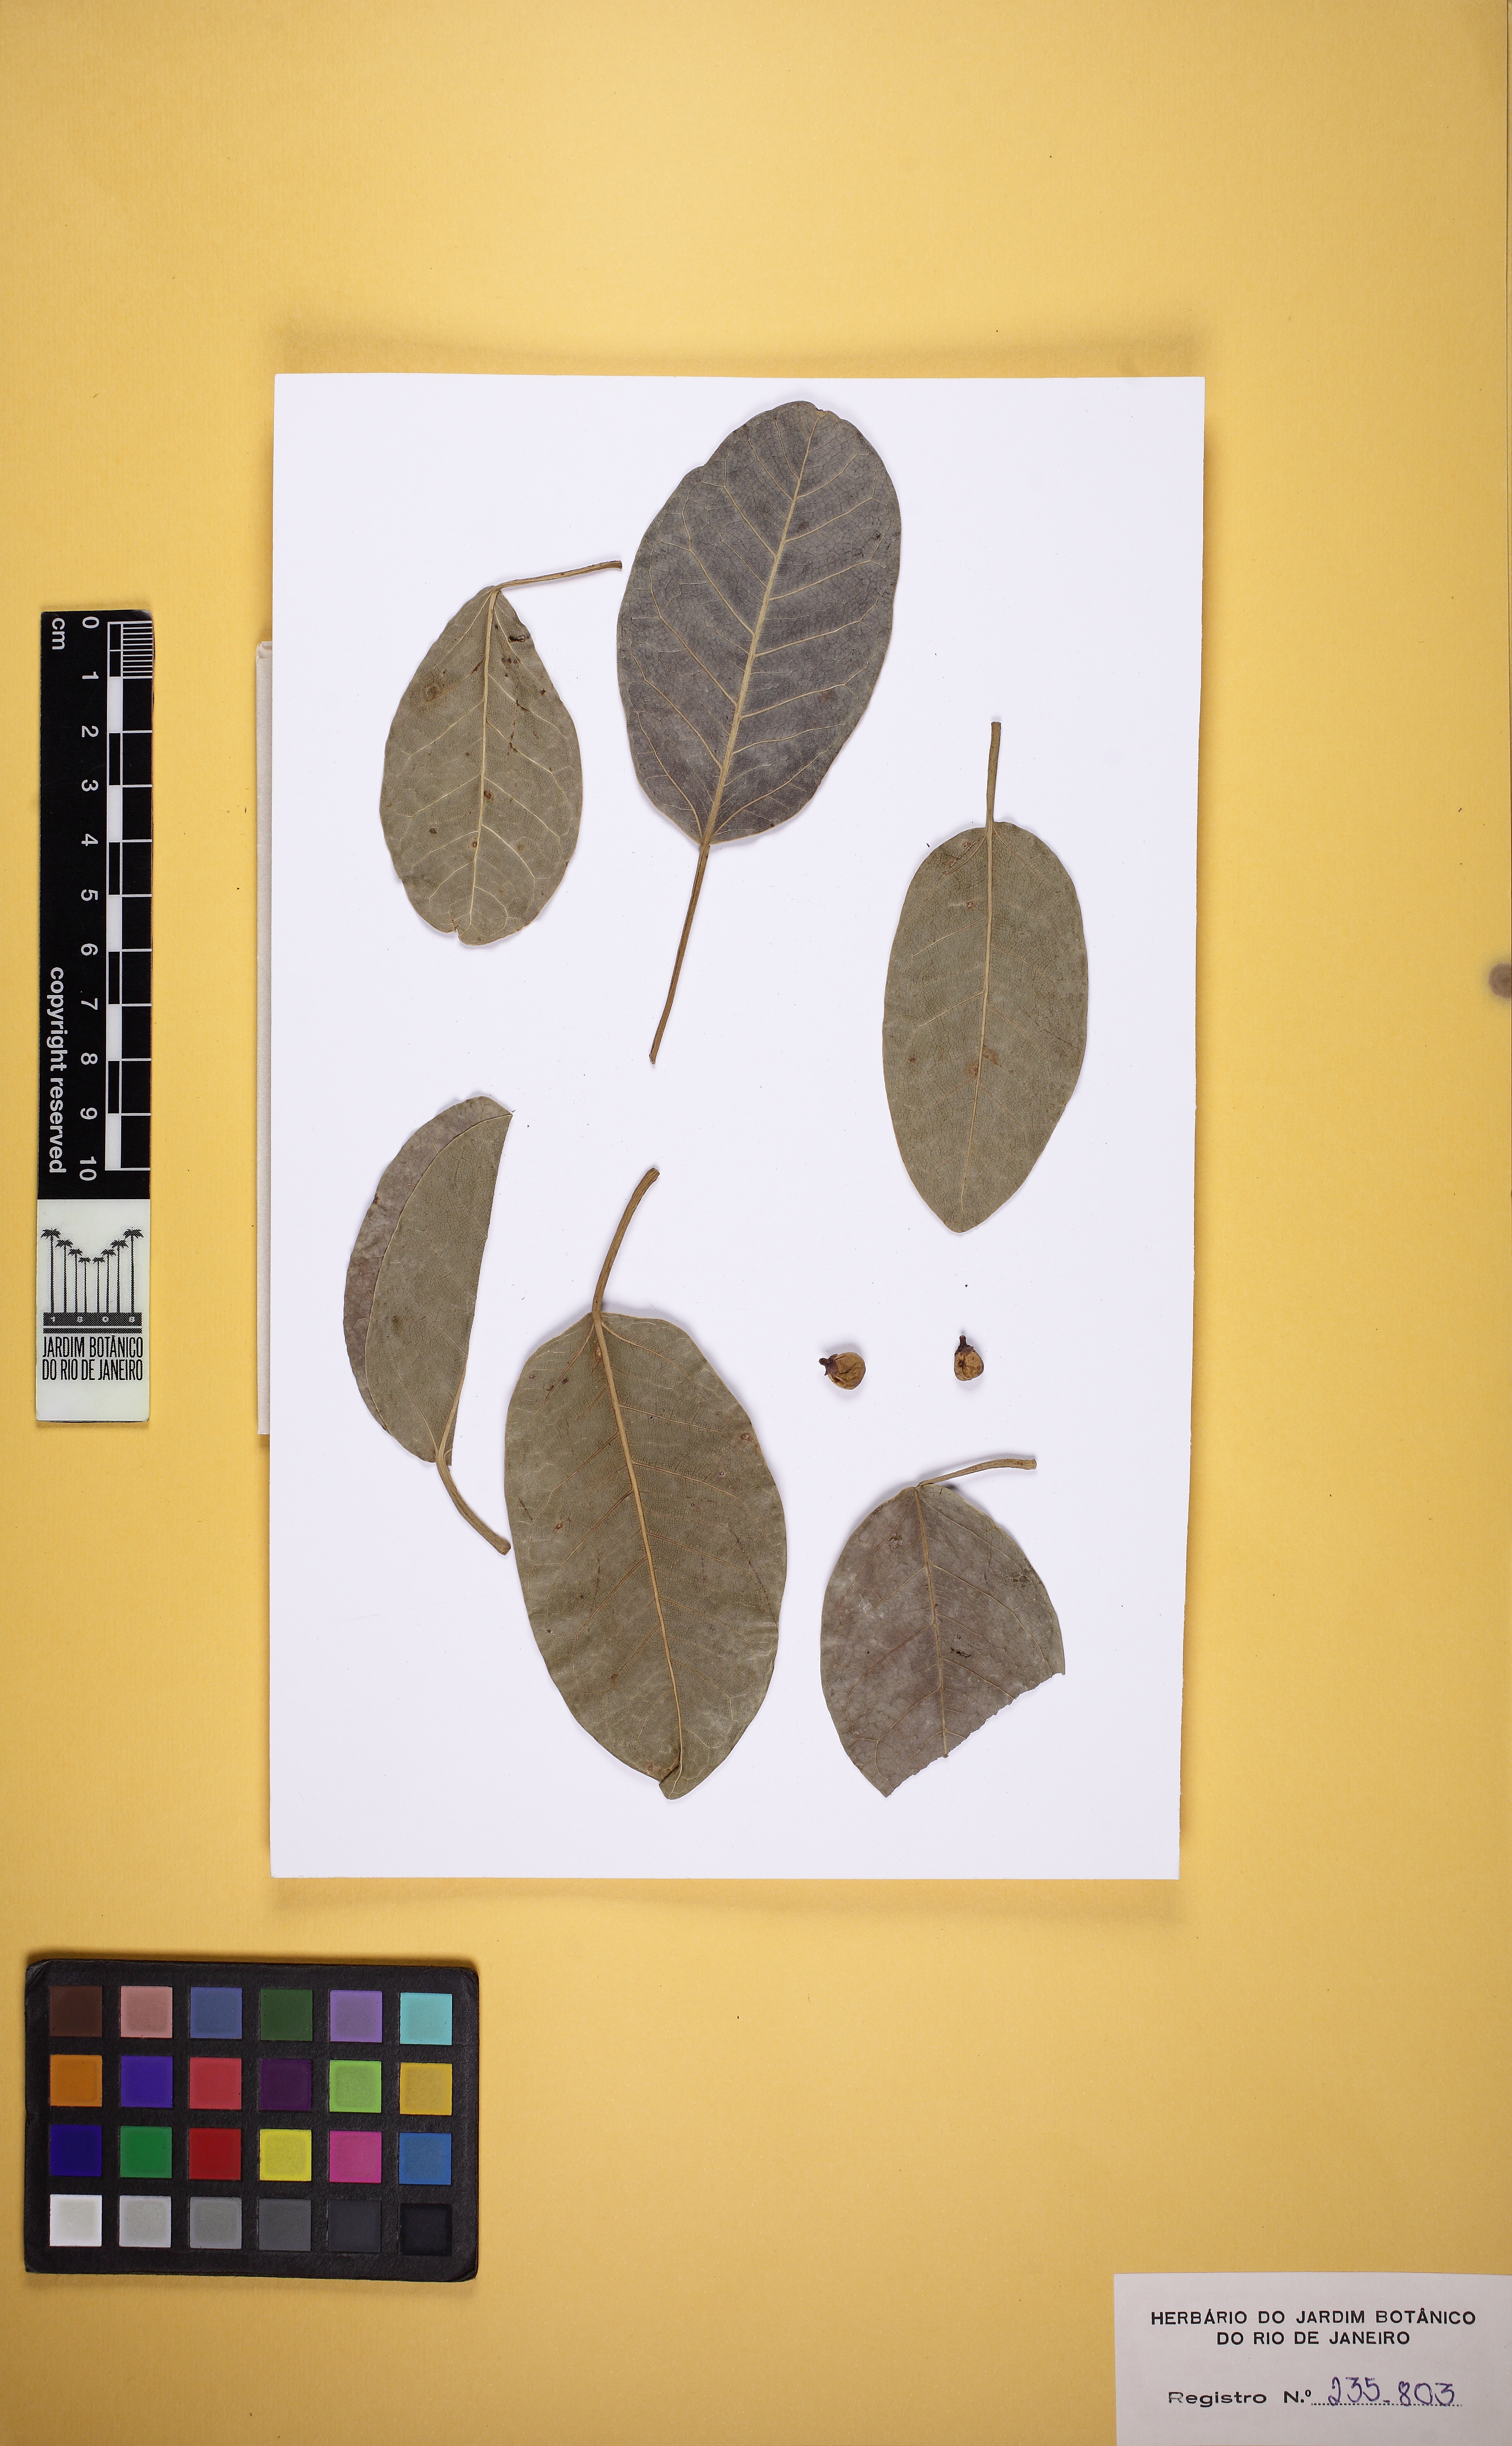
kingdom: Plantae
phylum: Tracheophyta
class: Magnoliopsida
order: Rosales
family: Moraceae
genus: Ficus
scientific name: Ficus monckii
